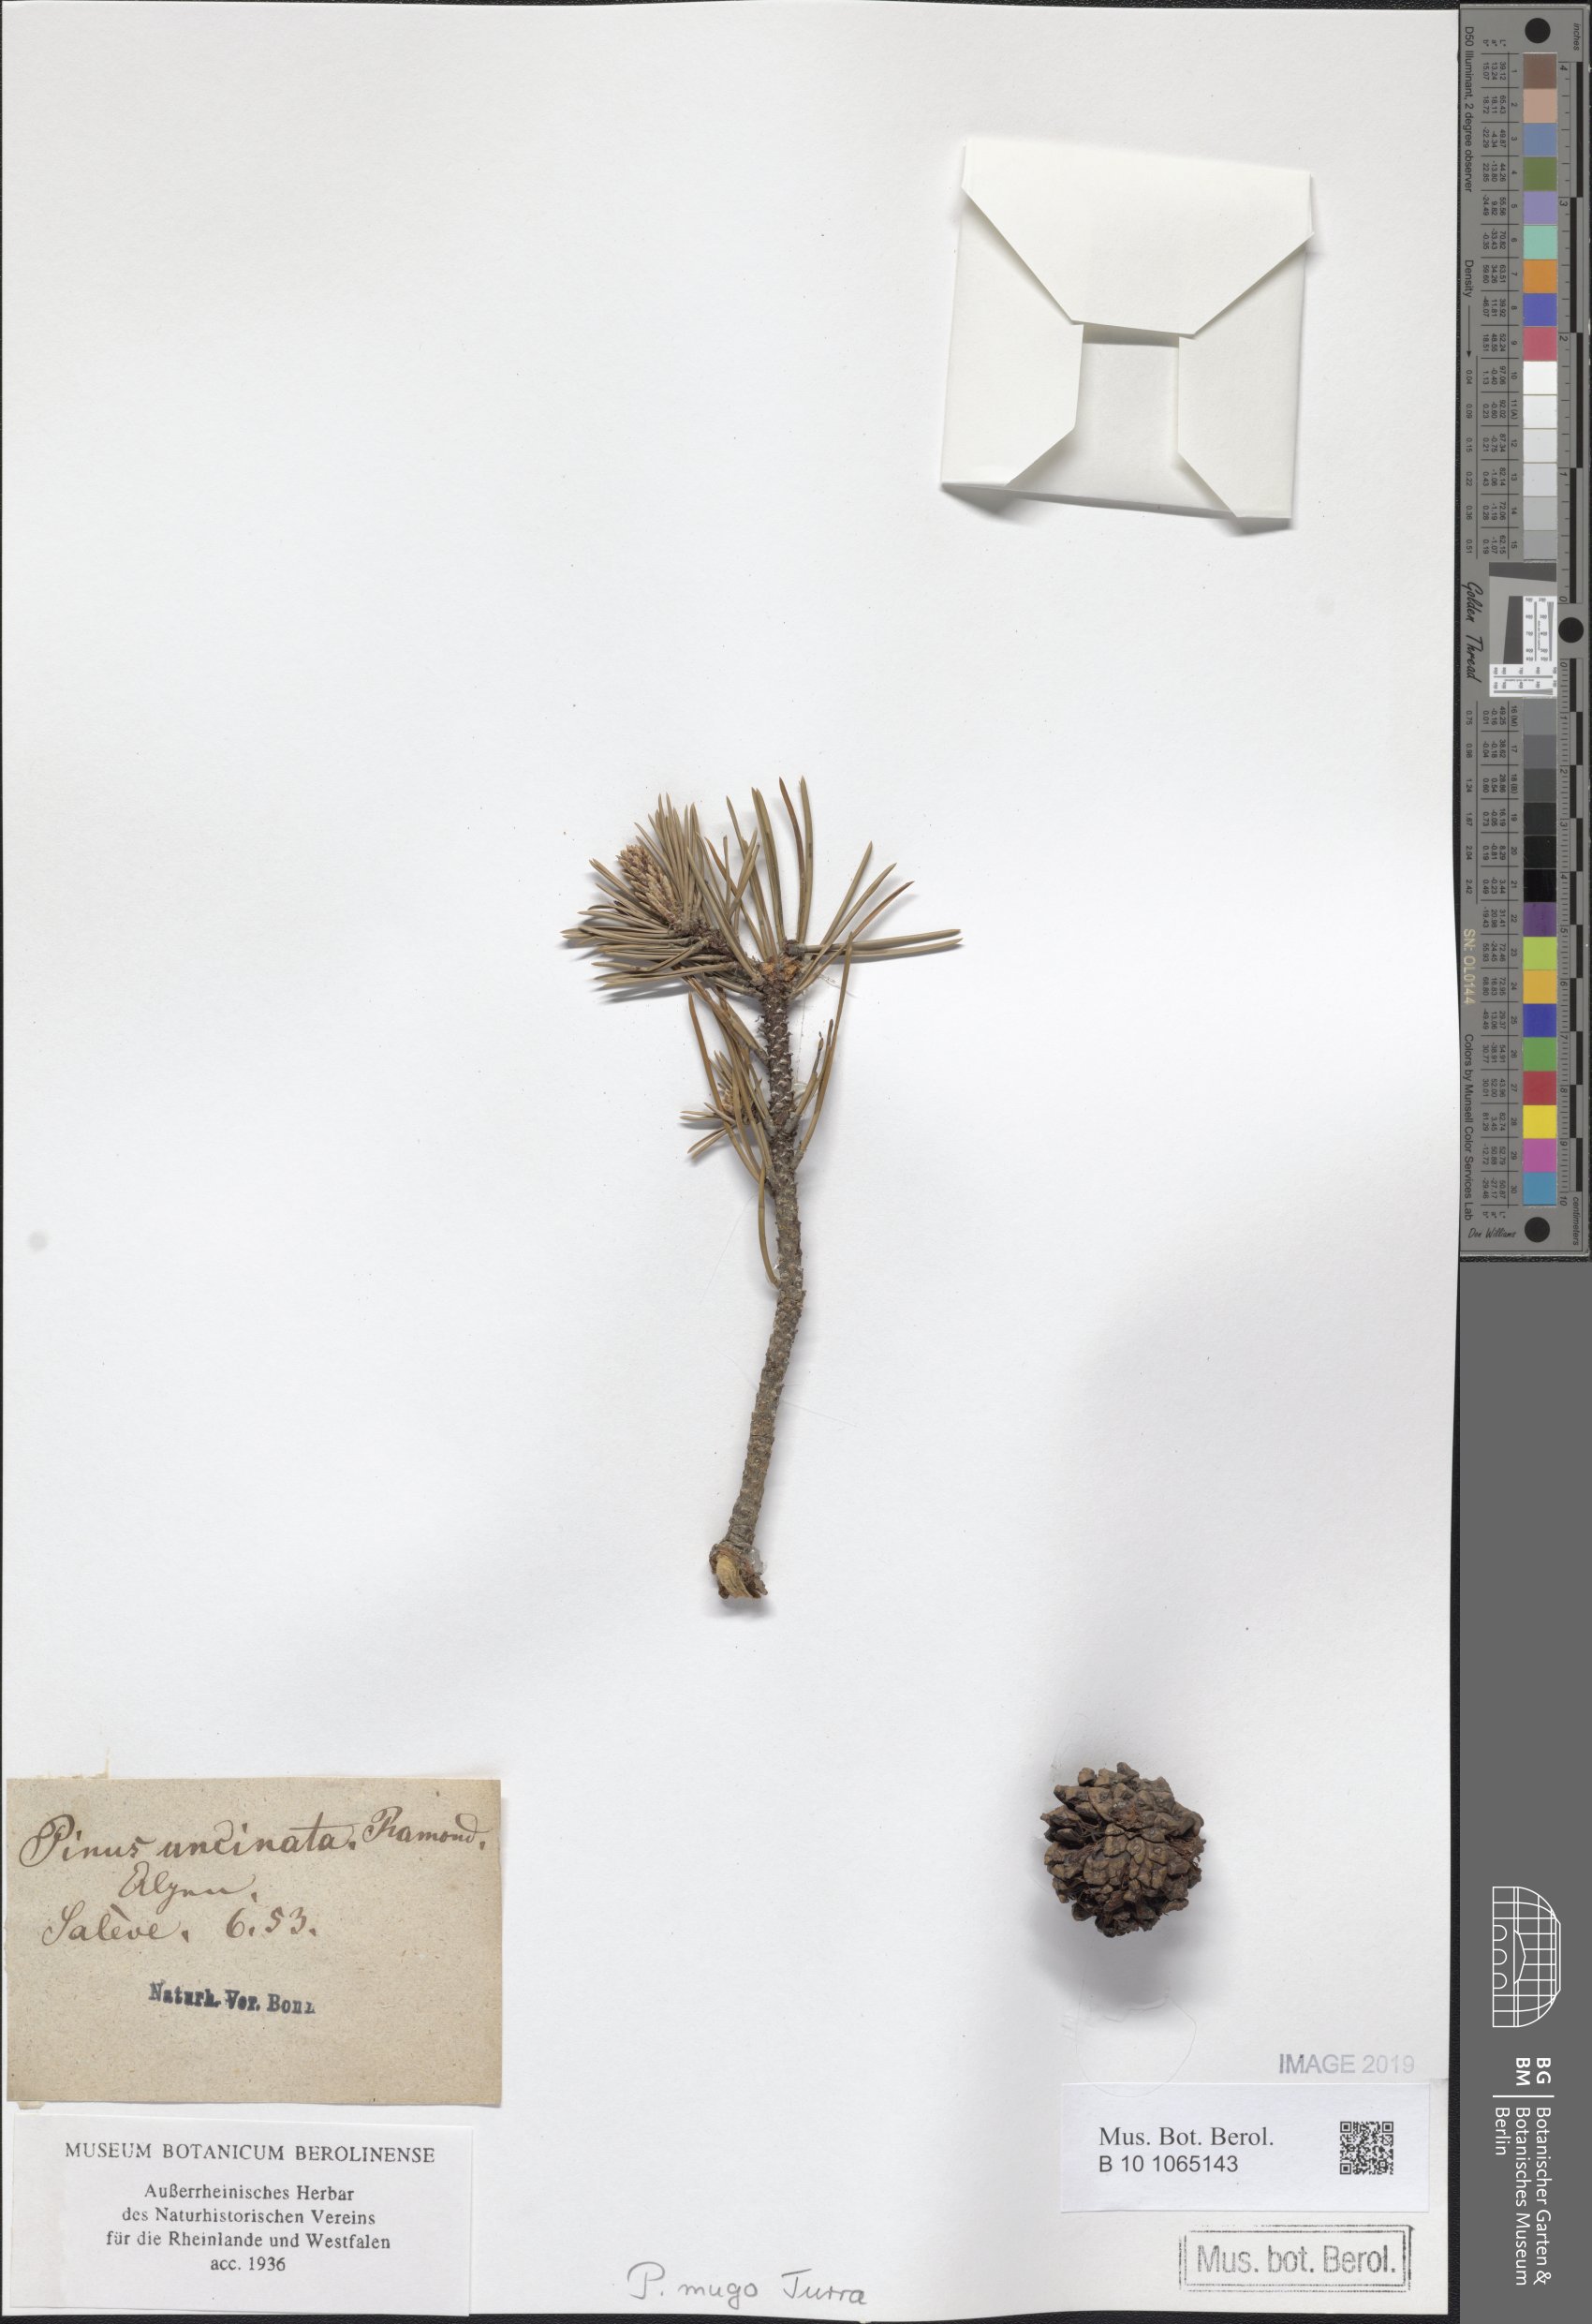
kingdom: Plantae
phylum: Tracheophyta
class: Pinopsida
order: Pinales
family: Pinaceae
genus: Pinus
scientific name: Pinus uncinata
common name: Mountain pine
